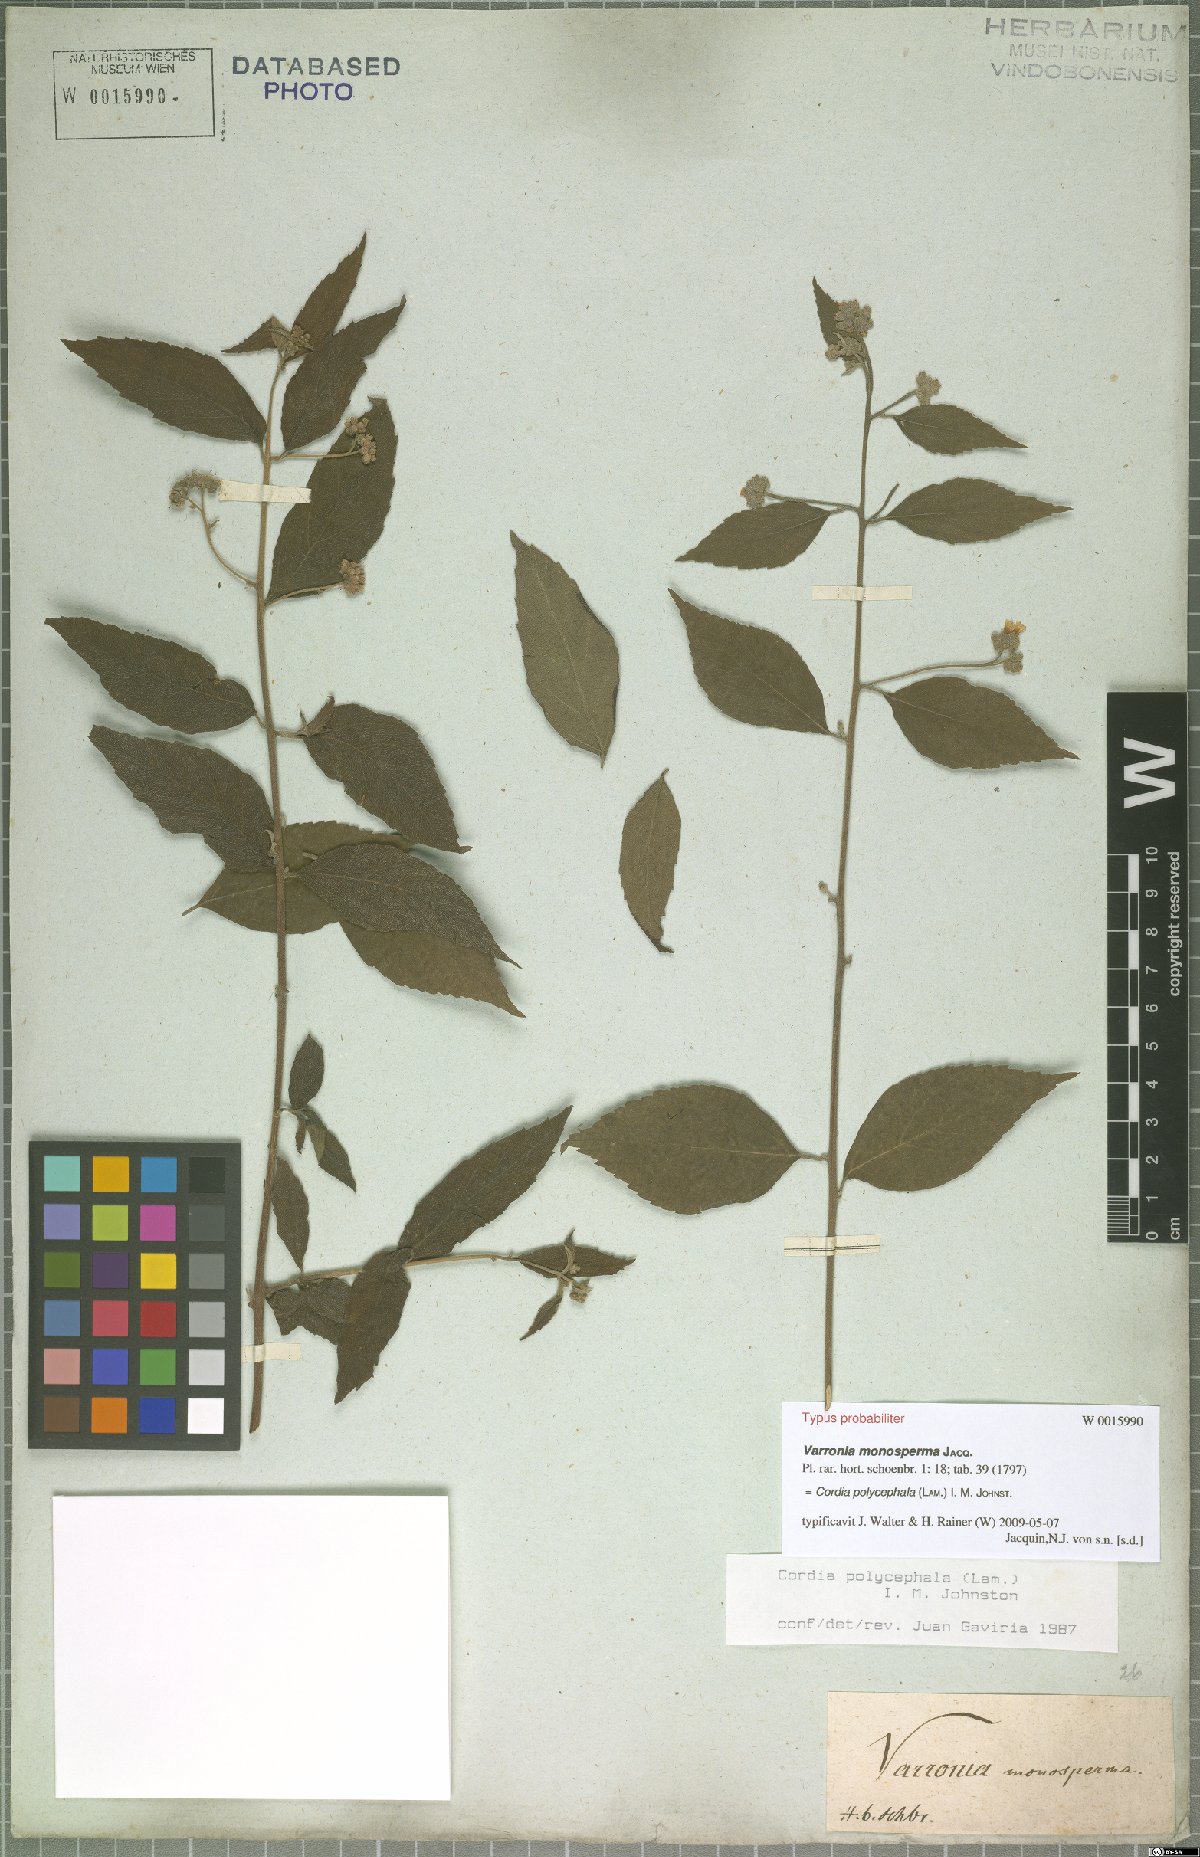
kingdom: Plantae
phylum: Tracheophyta
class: Magnoliopsida
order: Boraginales
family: Cordiaceae
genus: Varronia
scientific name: Varronia polycephala
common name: Black-sage
